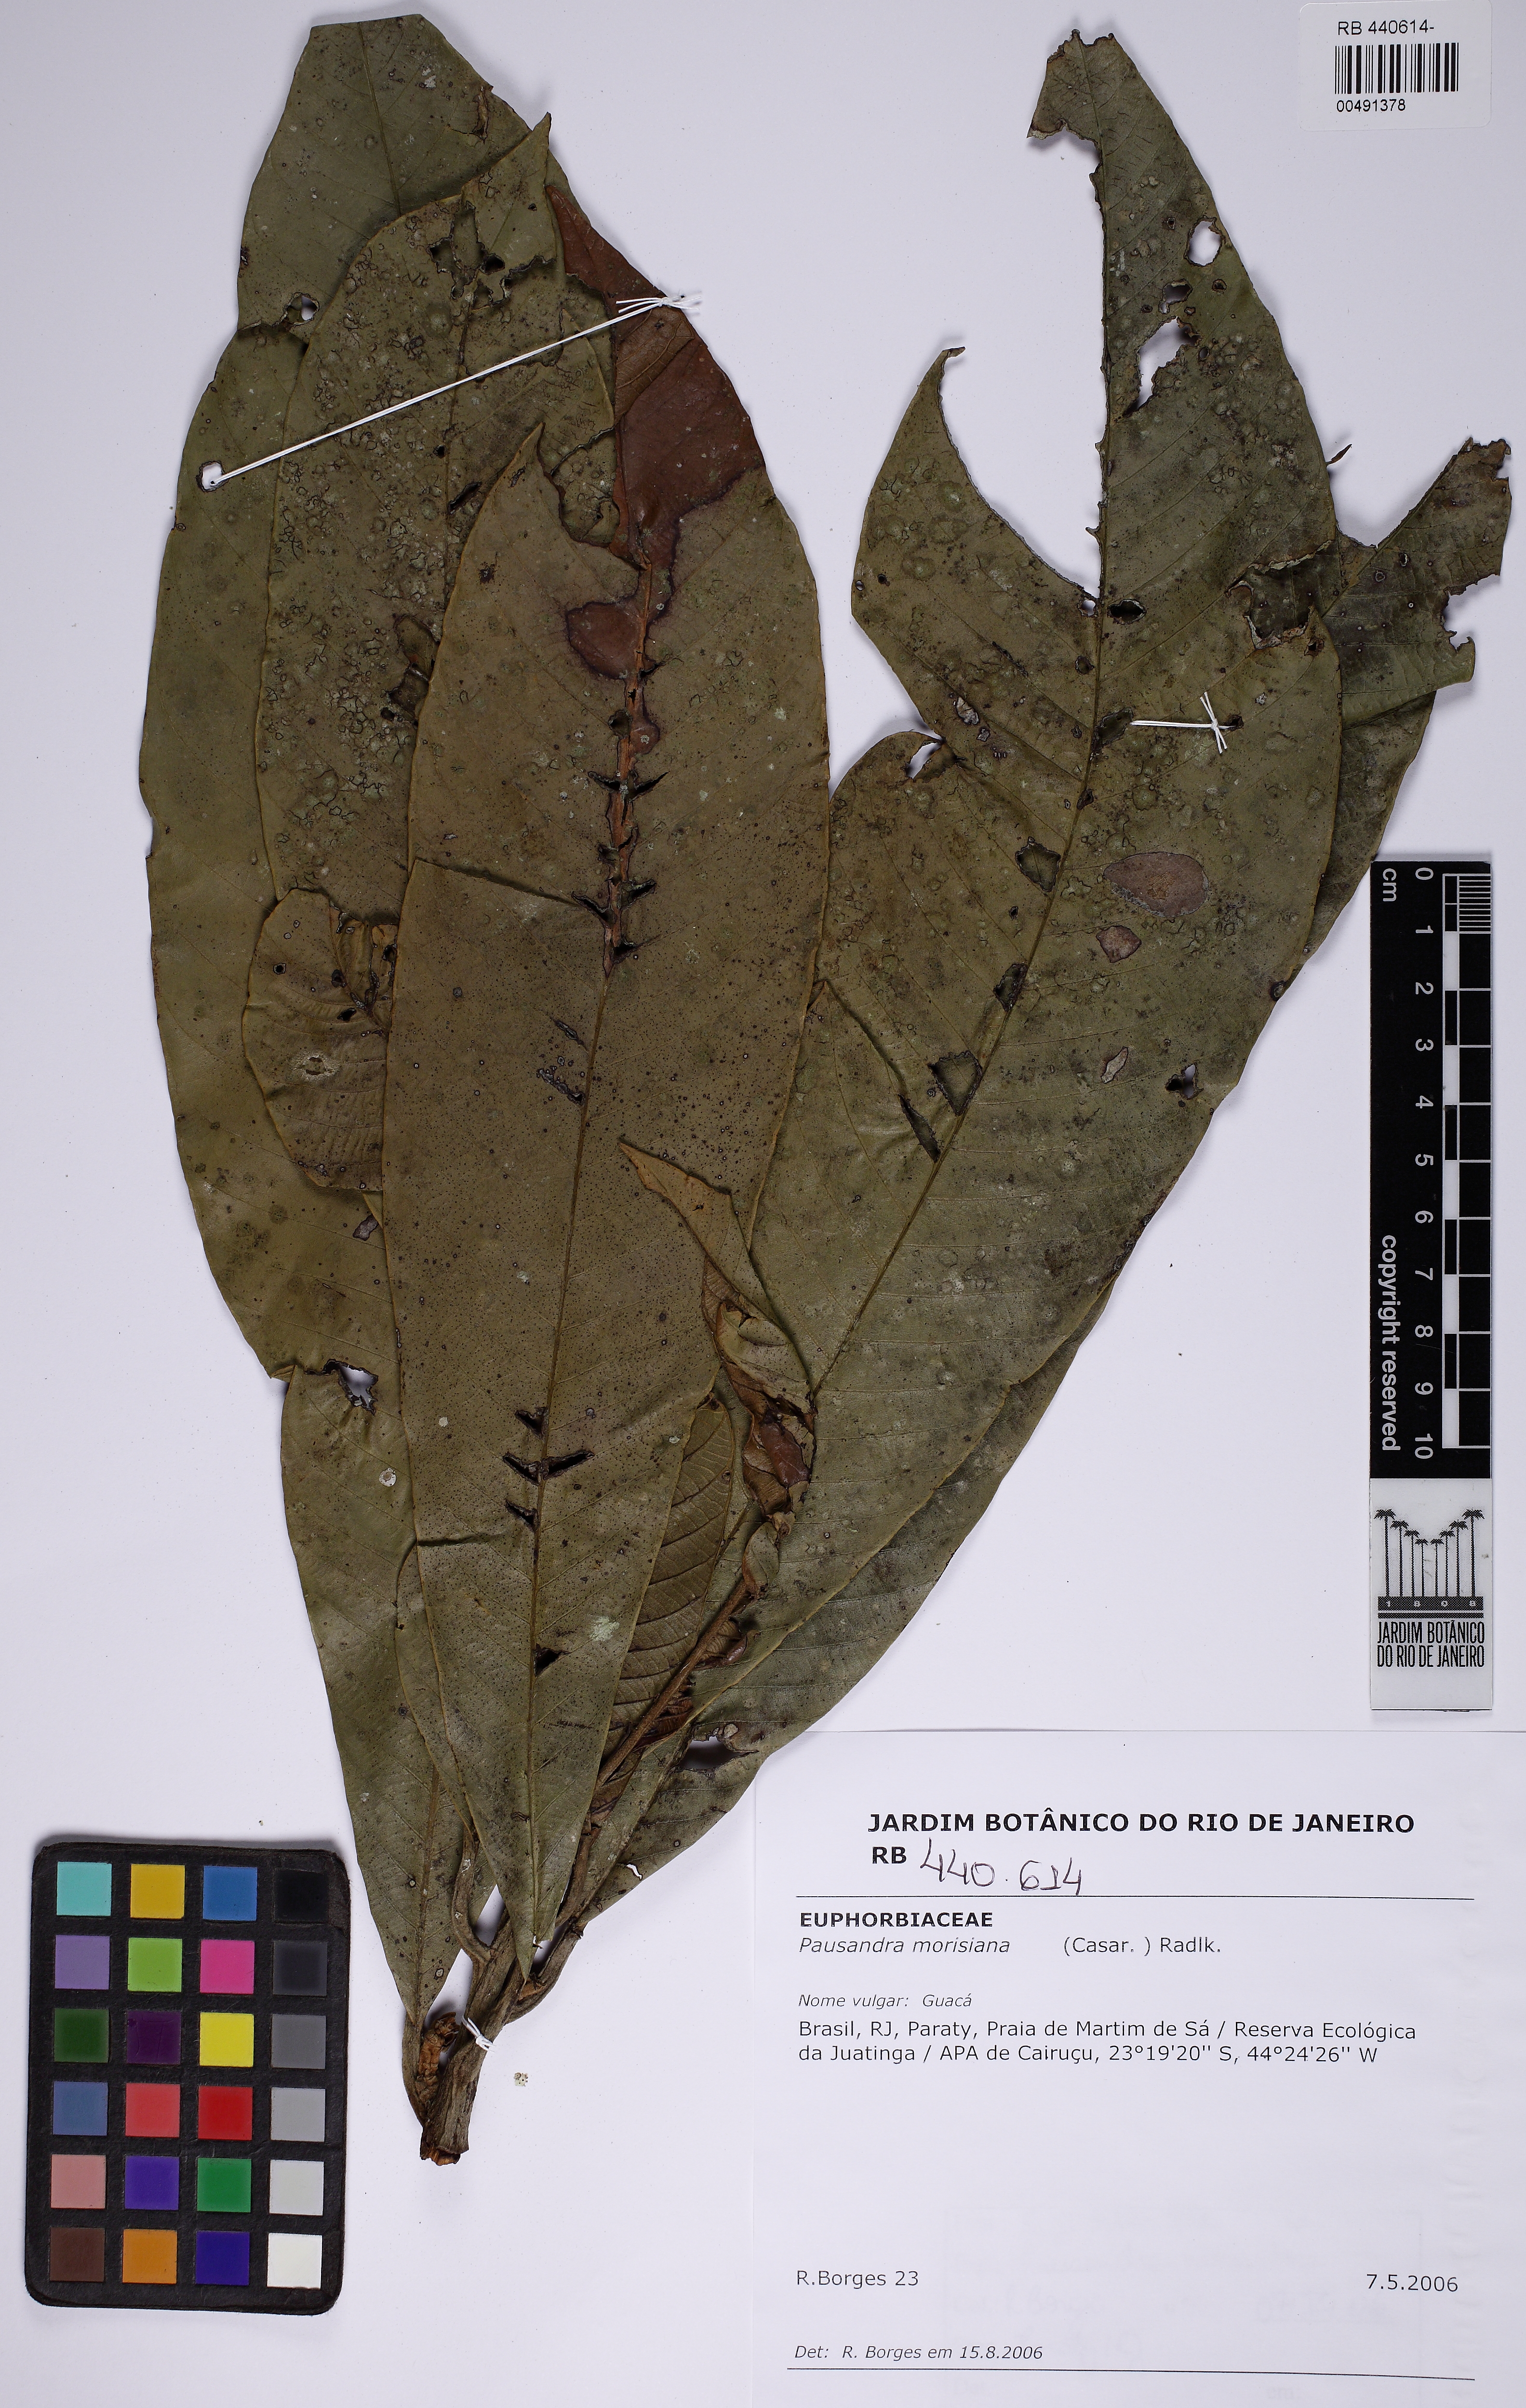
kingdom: Plantae
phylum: Tracheophyta
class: Magnoliopsida
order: Malpighiales
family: Euphorbiaceae
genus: Pausandra
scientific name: Pausandra morisiana
